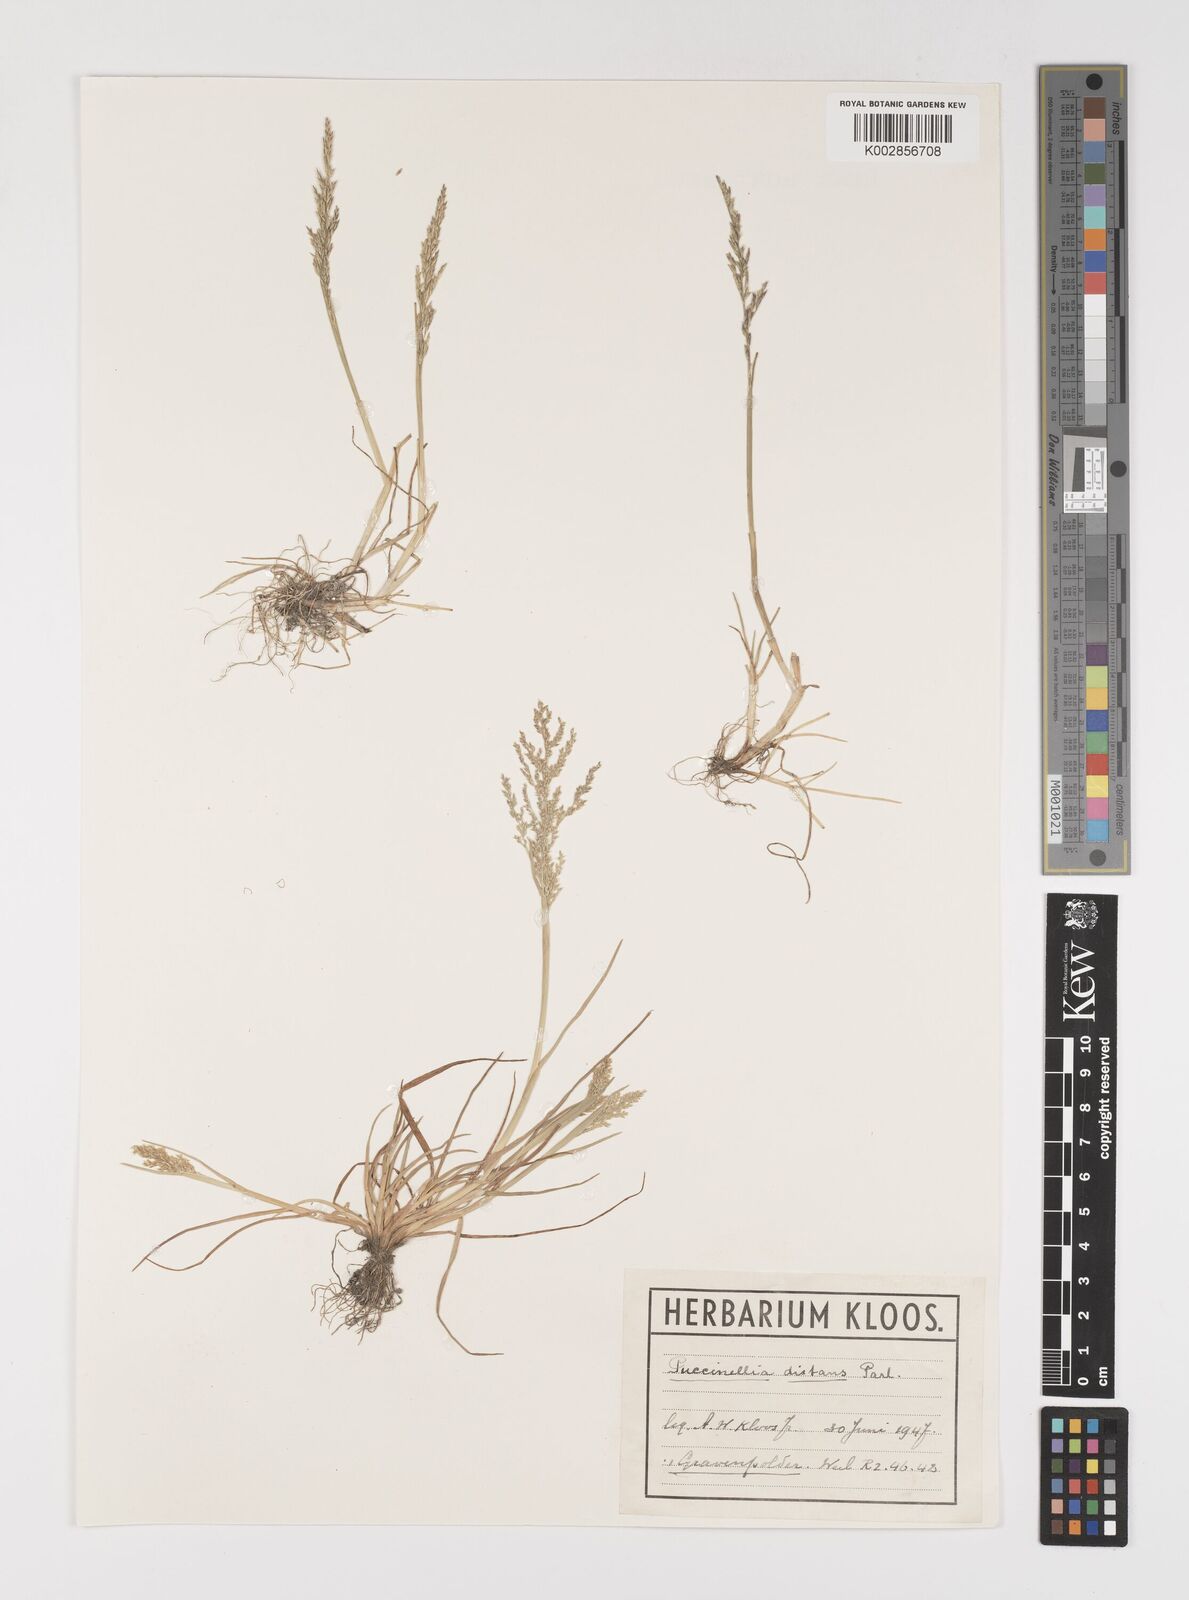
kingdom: Plantae
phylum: Tracheophyta
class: Liliopsida
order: Poales
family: Poaceae
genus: Puccinellia
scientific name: Puccinellia distans
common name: Weeping alkaligrass
